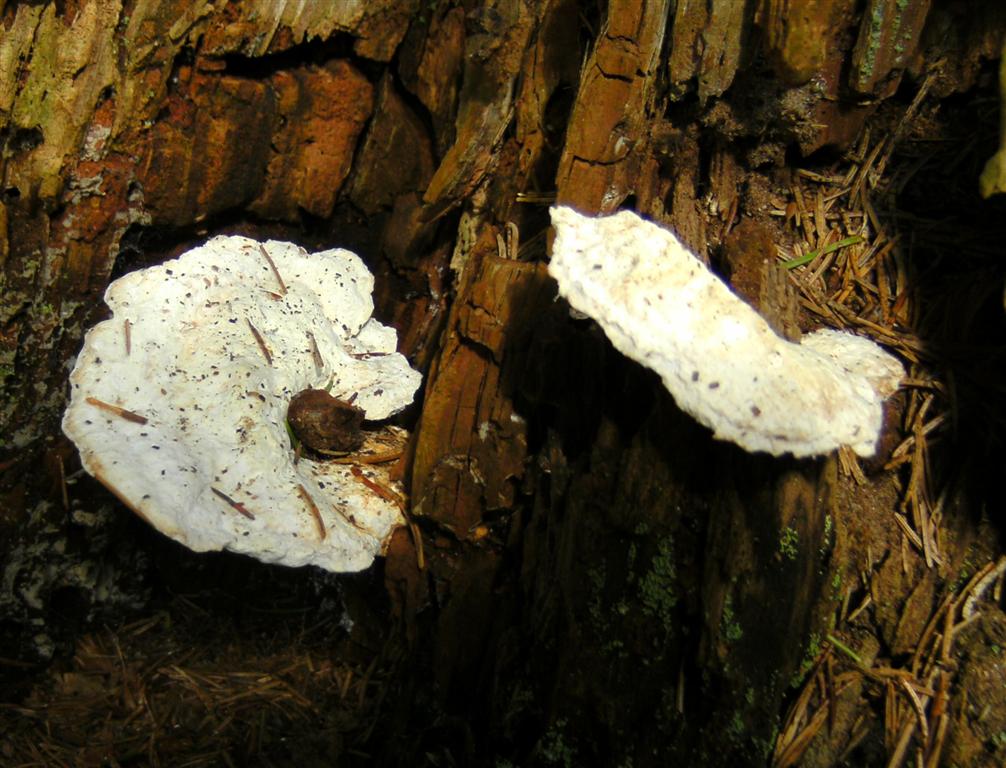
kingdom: Fungi
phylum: Basidiomycota
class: Agaricomycetes
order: Polyporales
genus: Calcipostia
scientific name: Calcipostia guttulata
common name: dråbe-kødporesvamp
